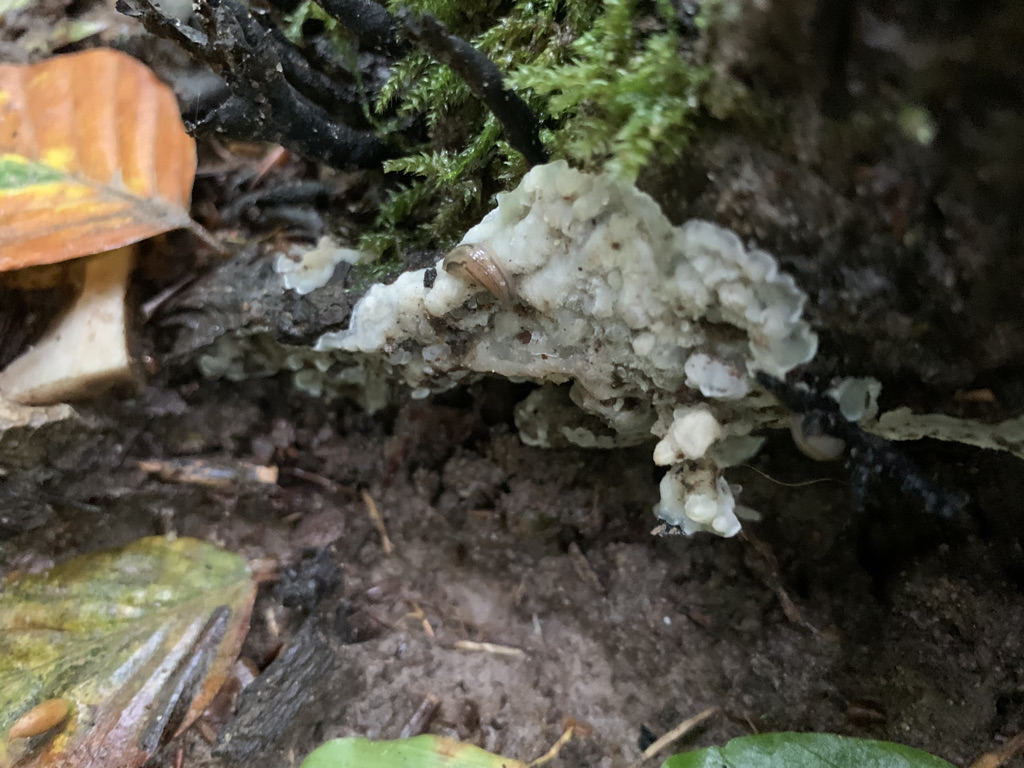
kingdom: Fungi
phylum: Basidiomycota
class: Agaricomycetes
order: Polyporales
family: Meruliaceae
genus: Physisporinus
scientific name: Physisporinus vitreus
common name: mastesvamp
